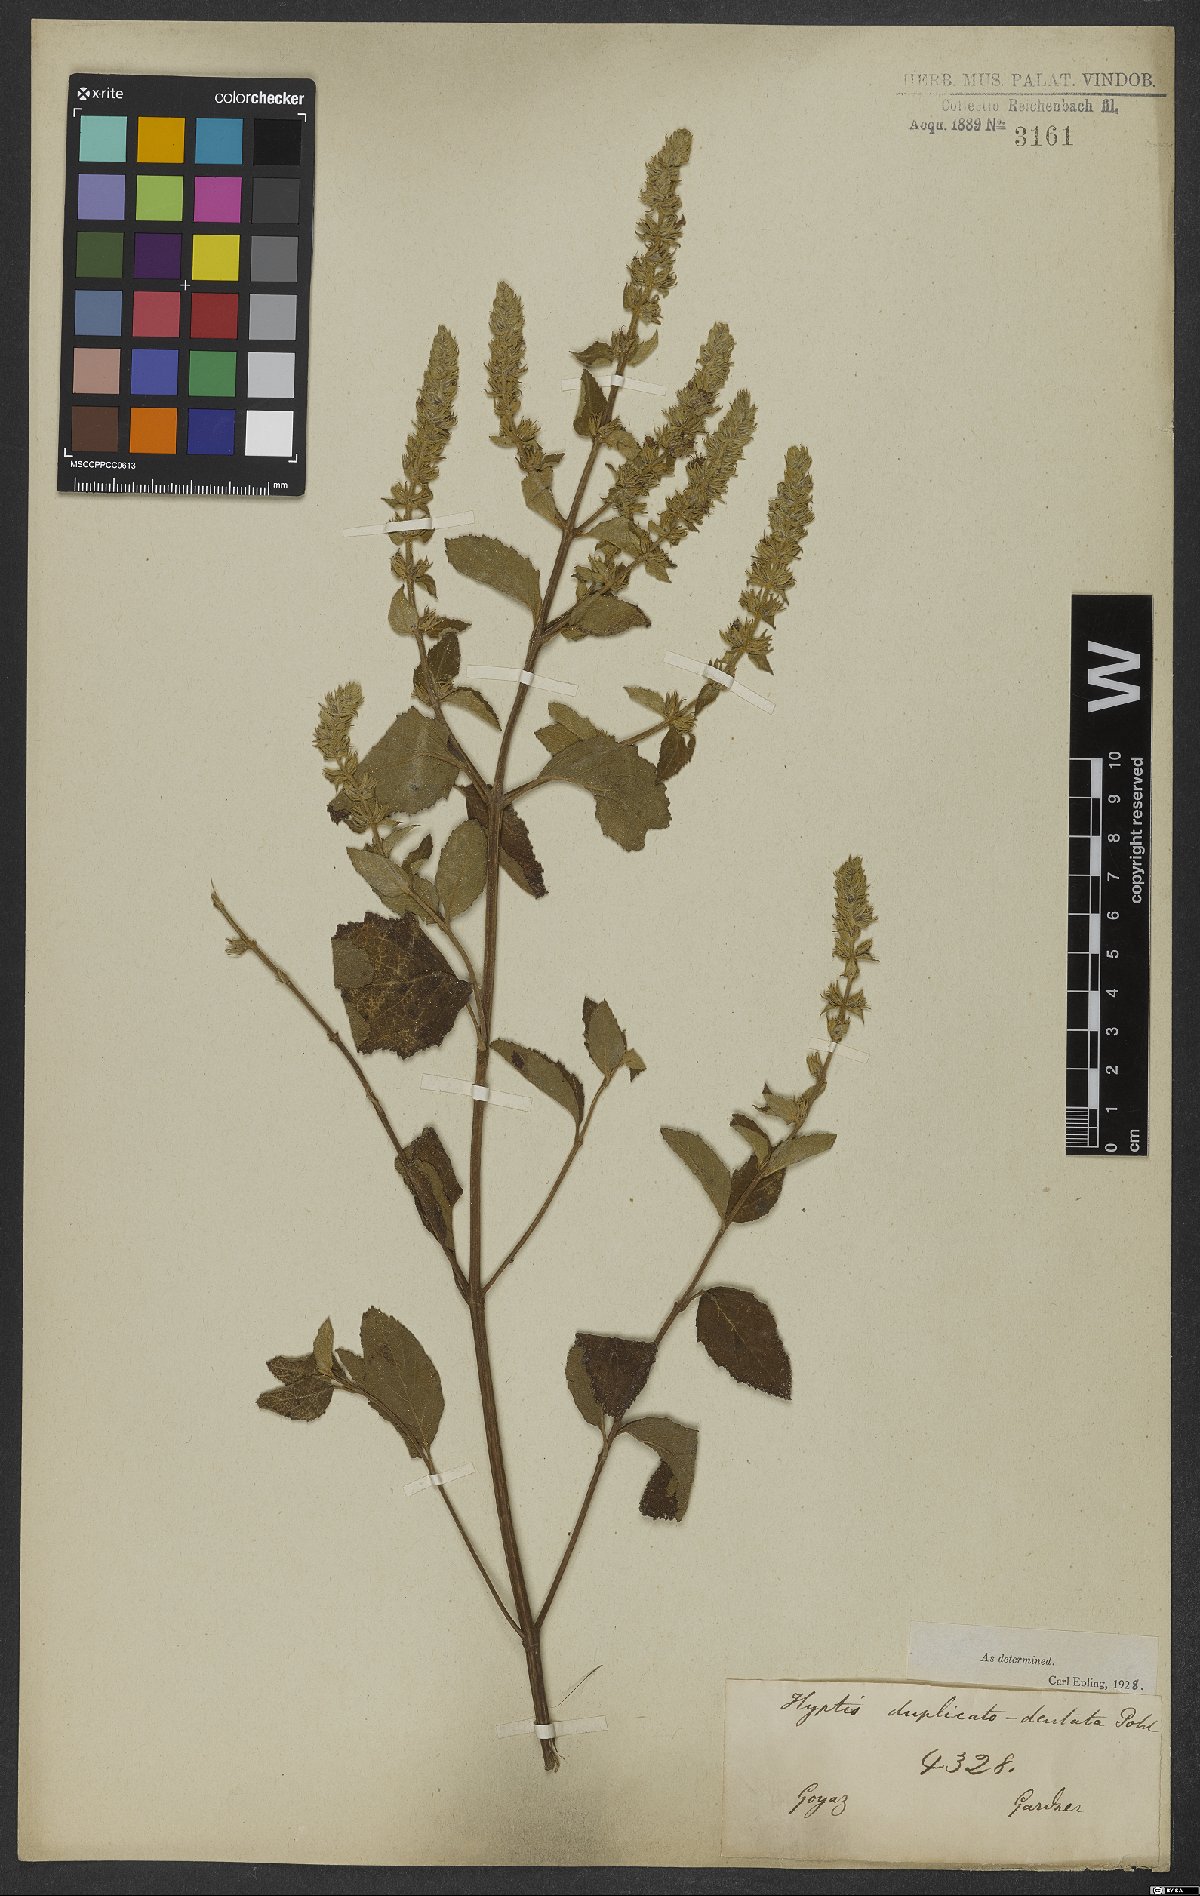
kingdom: Plantae
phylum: Tracheophyta
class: Magnoliopsida
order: Lamiales
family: Lamiaceae
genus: Cantinoa
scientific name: Cantinoa duplicatodentata
